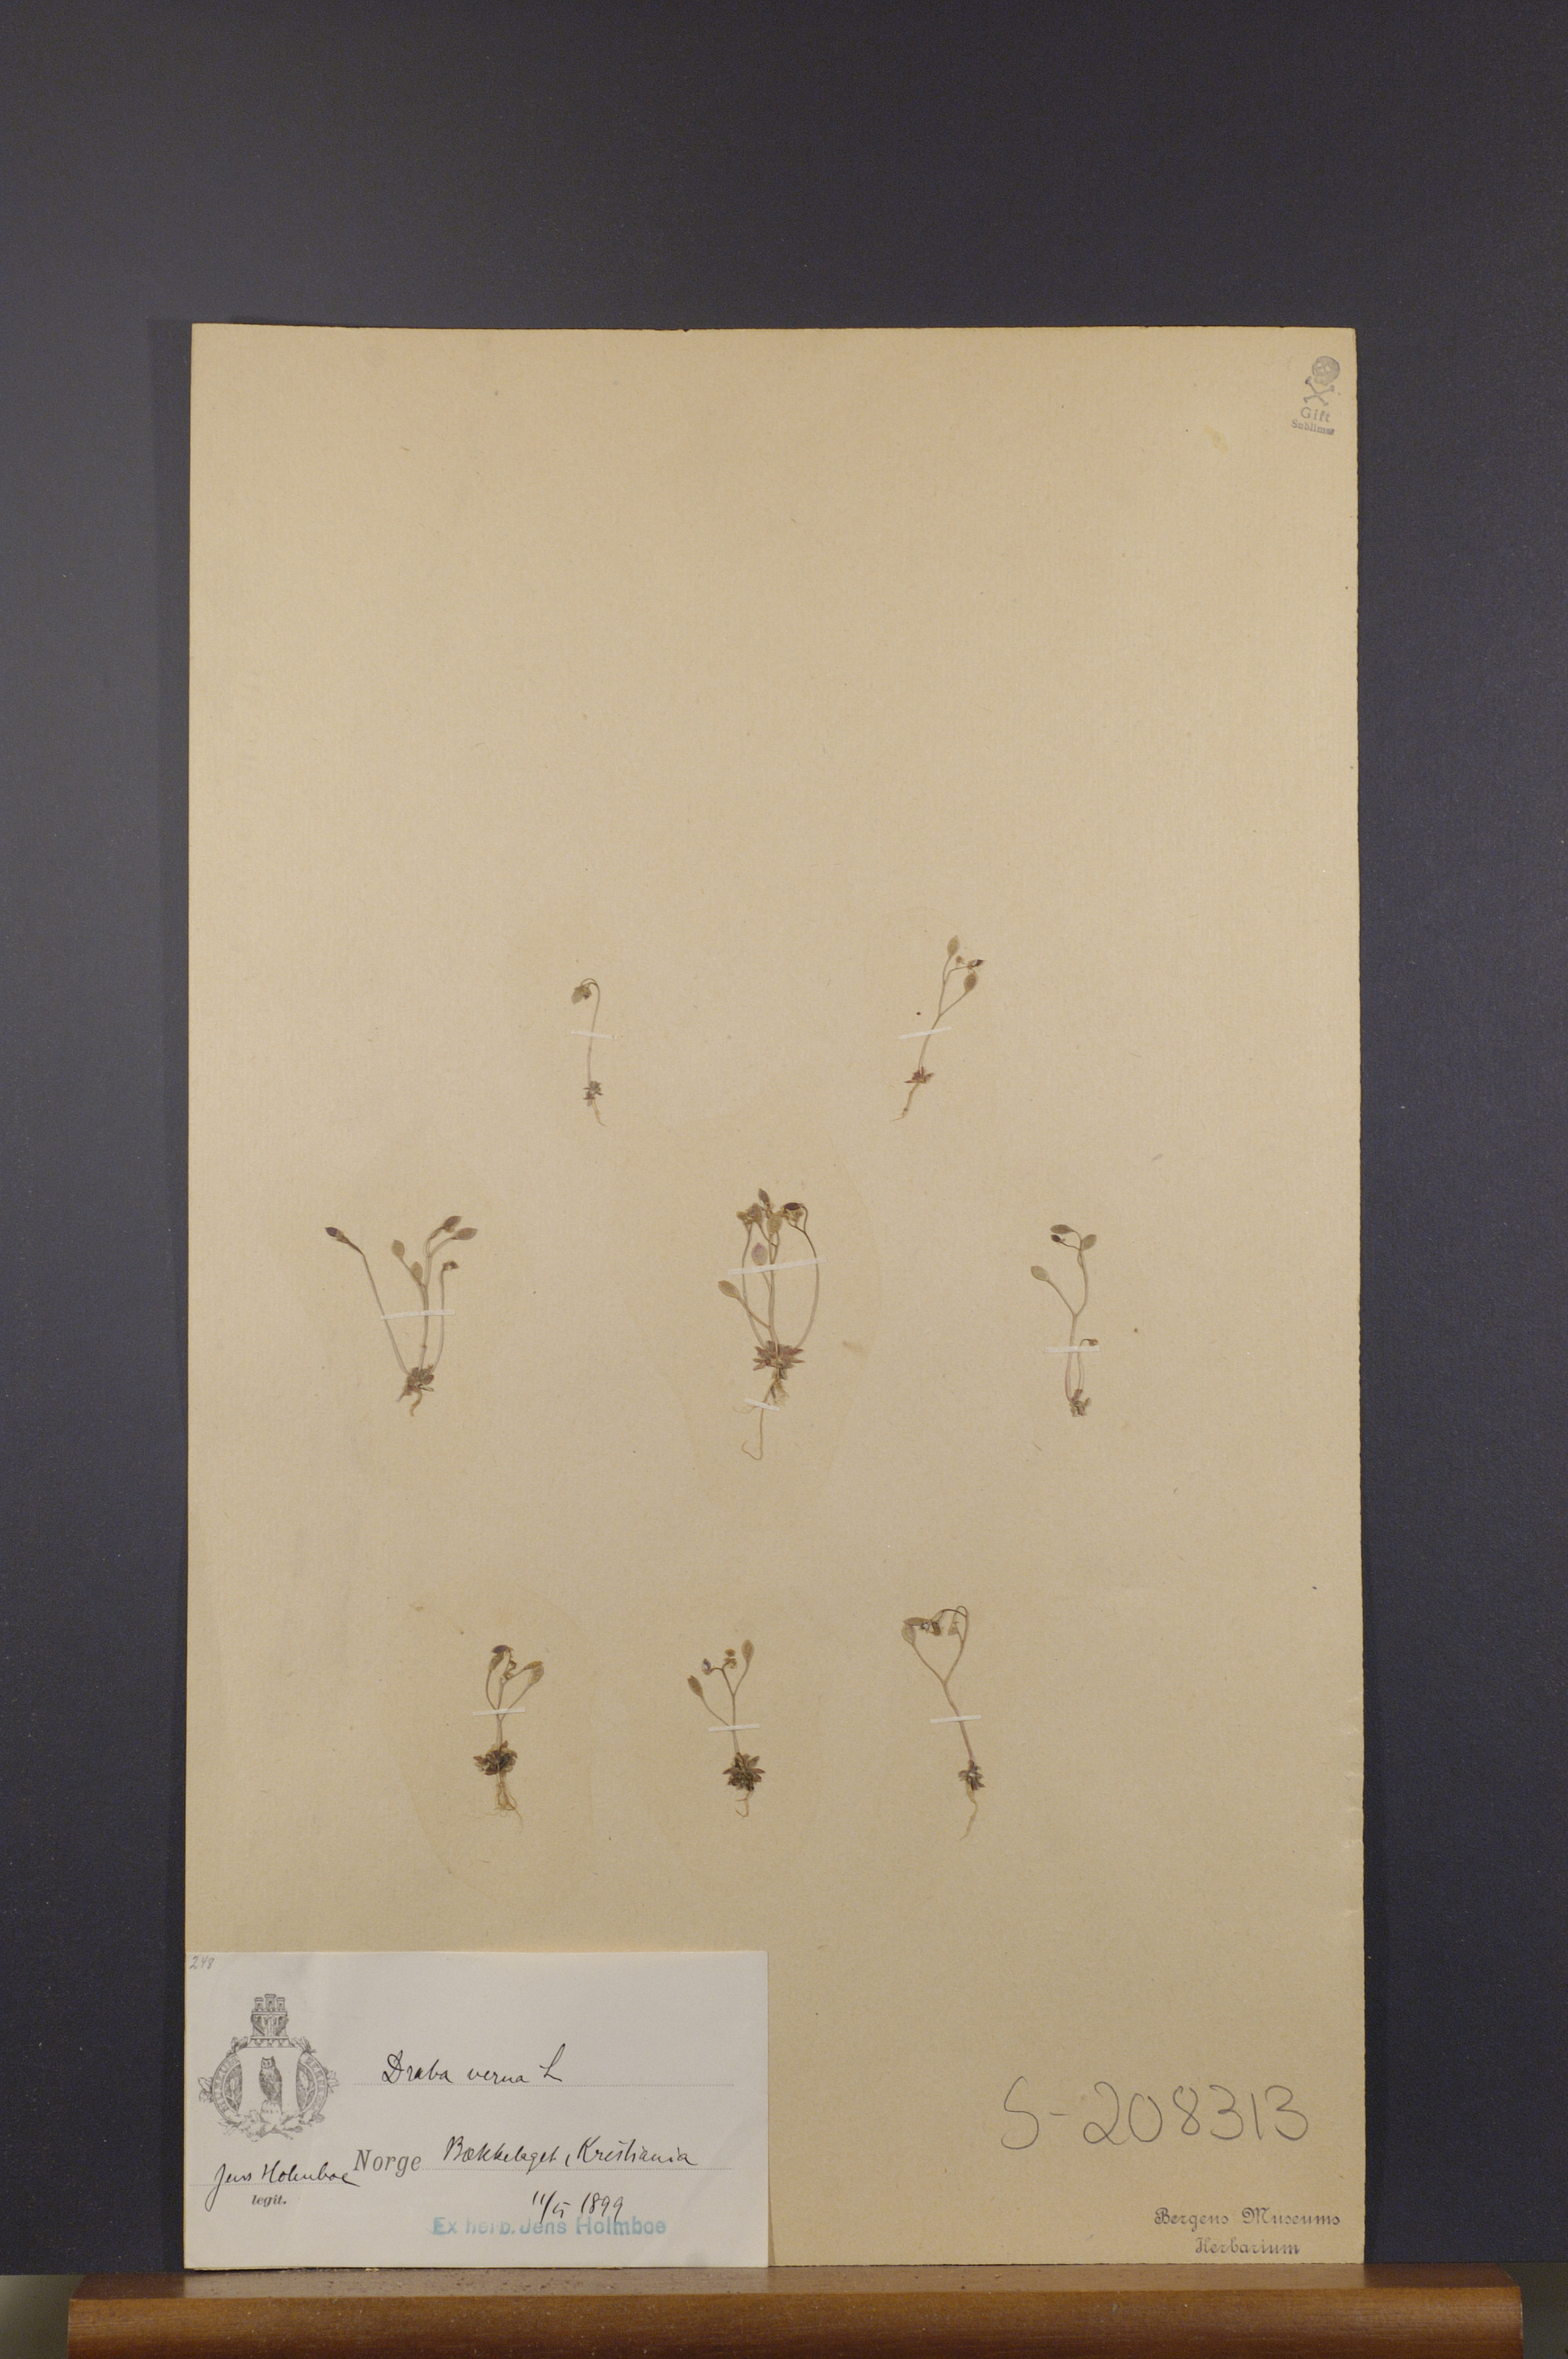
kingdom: Plantae
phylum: Tracheophyta
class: Magnoliopsida
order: Brassicales
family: Brassicaceae
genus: Draba
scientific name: Draba verna
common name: Spring draba
